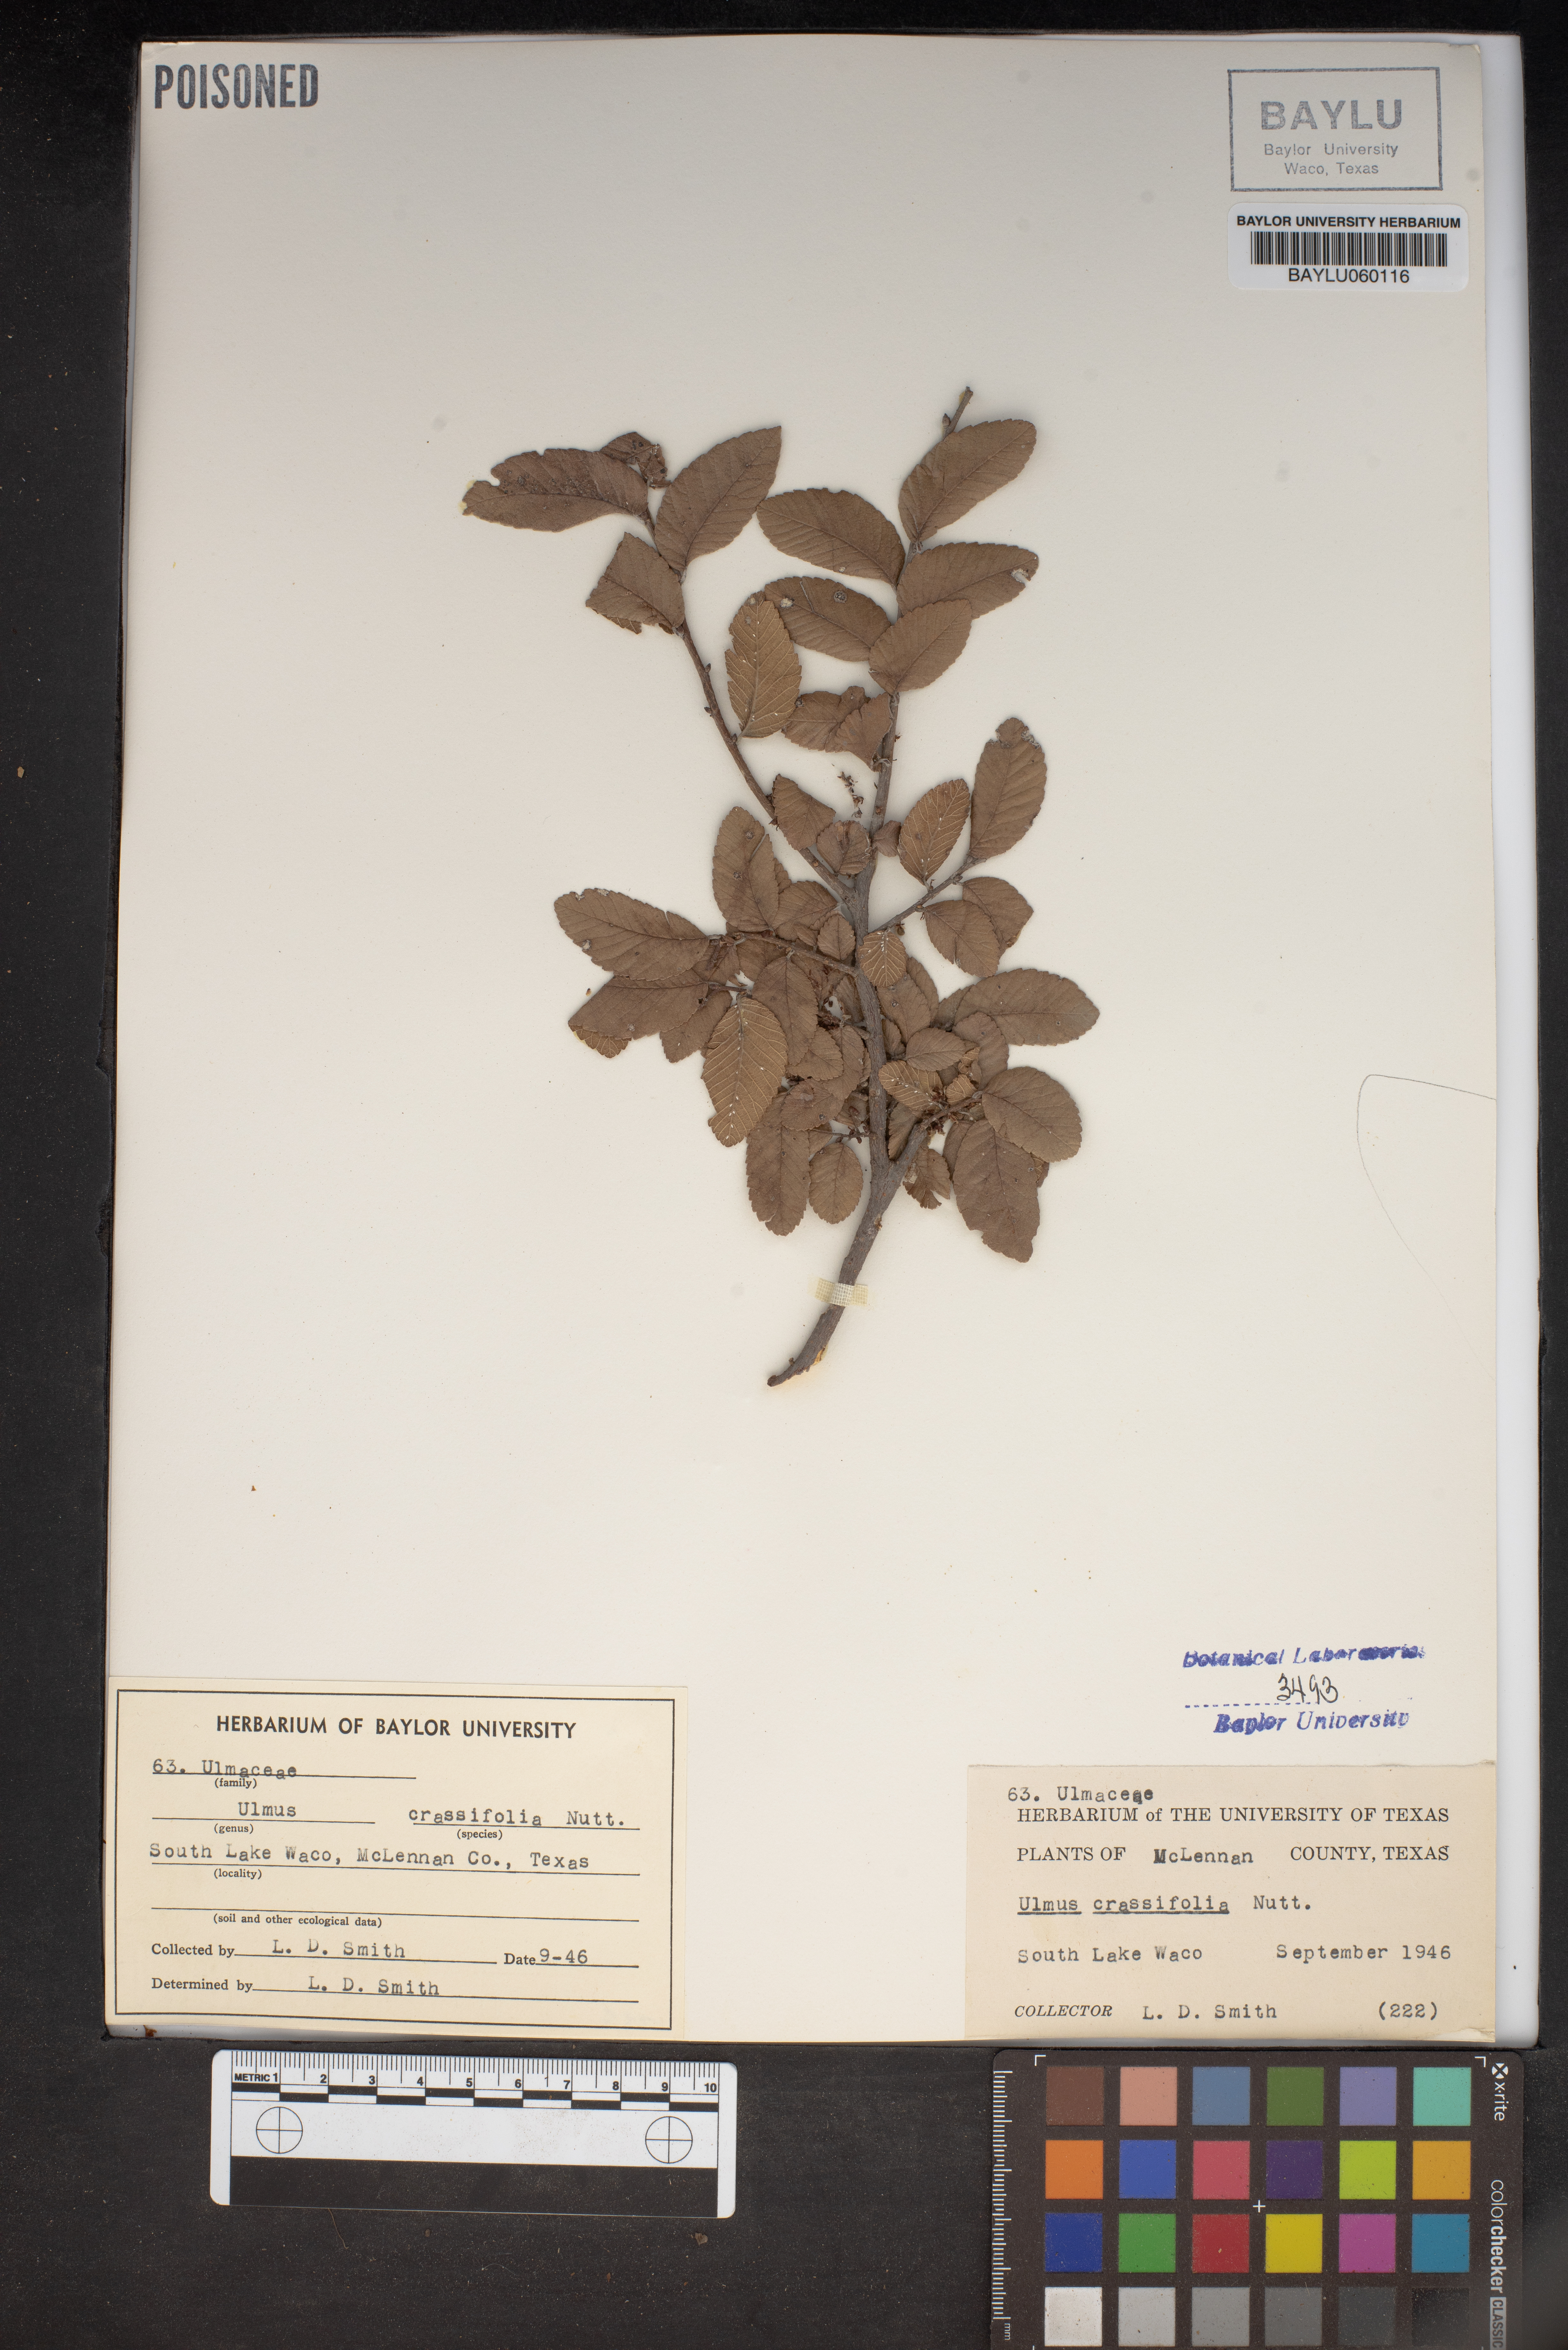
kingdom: Plantae
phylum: Tracheophyta
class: Magnoliopsida
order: Rosales
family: Ulmaceae
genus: Ulmus
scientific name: Ulmus crassifolia
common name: Basket elm
